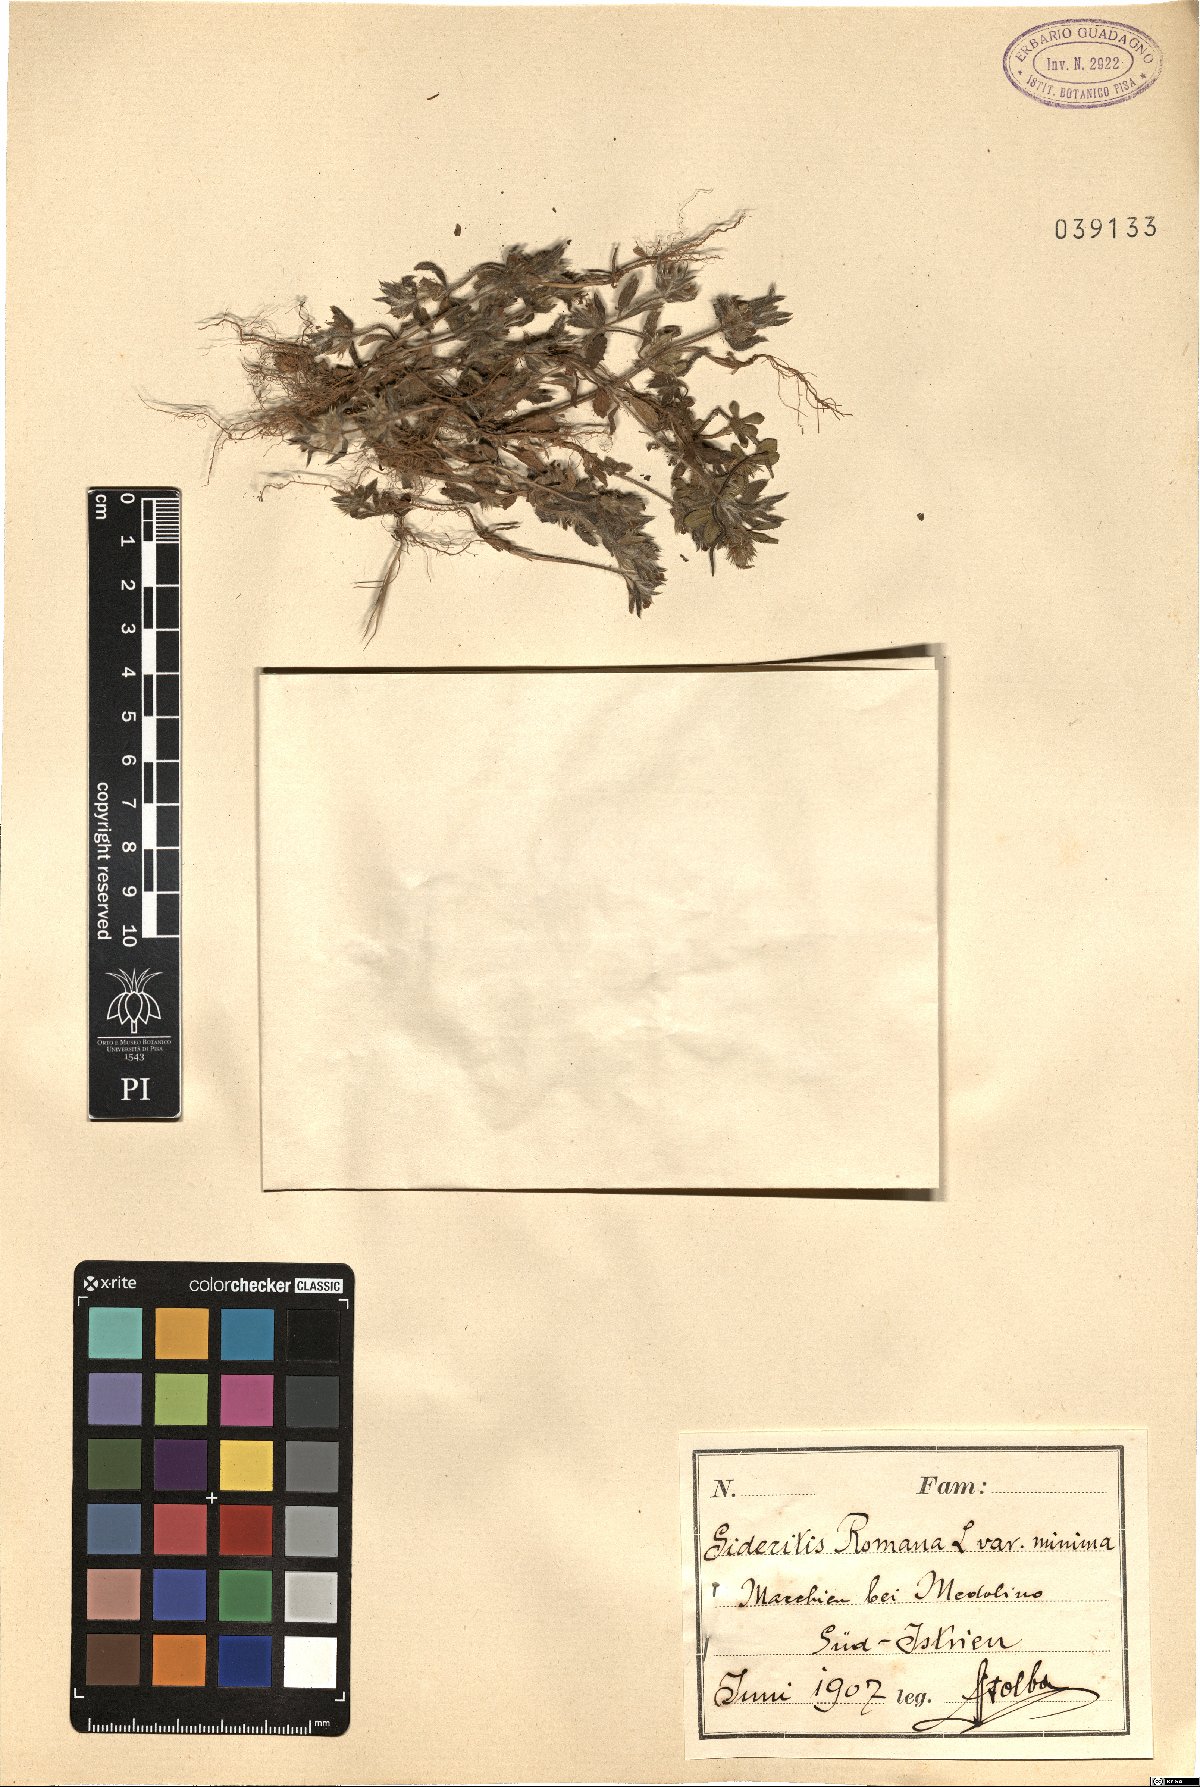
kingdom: Plantae
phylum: Tracheophyta
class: Magnoliopsida
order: Lamiales
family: Lamiaceae
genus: Sideritis
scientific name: Sideritis romana
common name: Simplebeak ironwort
